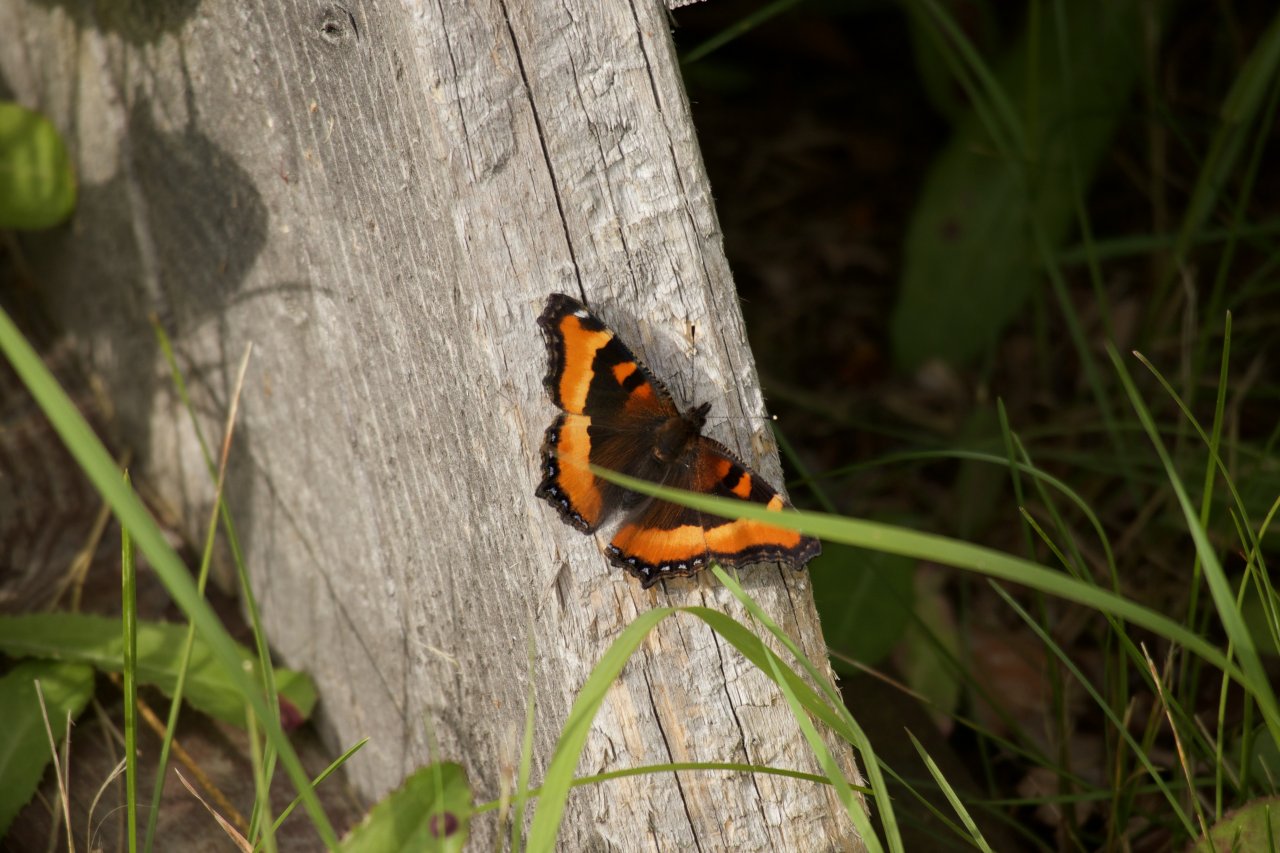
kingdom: Animalia
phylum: Arthropoda
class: Insecta
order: Lepidoptera
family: Nymphalidae
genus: Aglais
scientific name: Aglais milberti
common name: Milbert's Tortoiseshell
